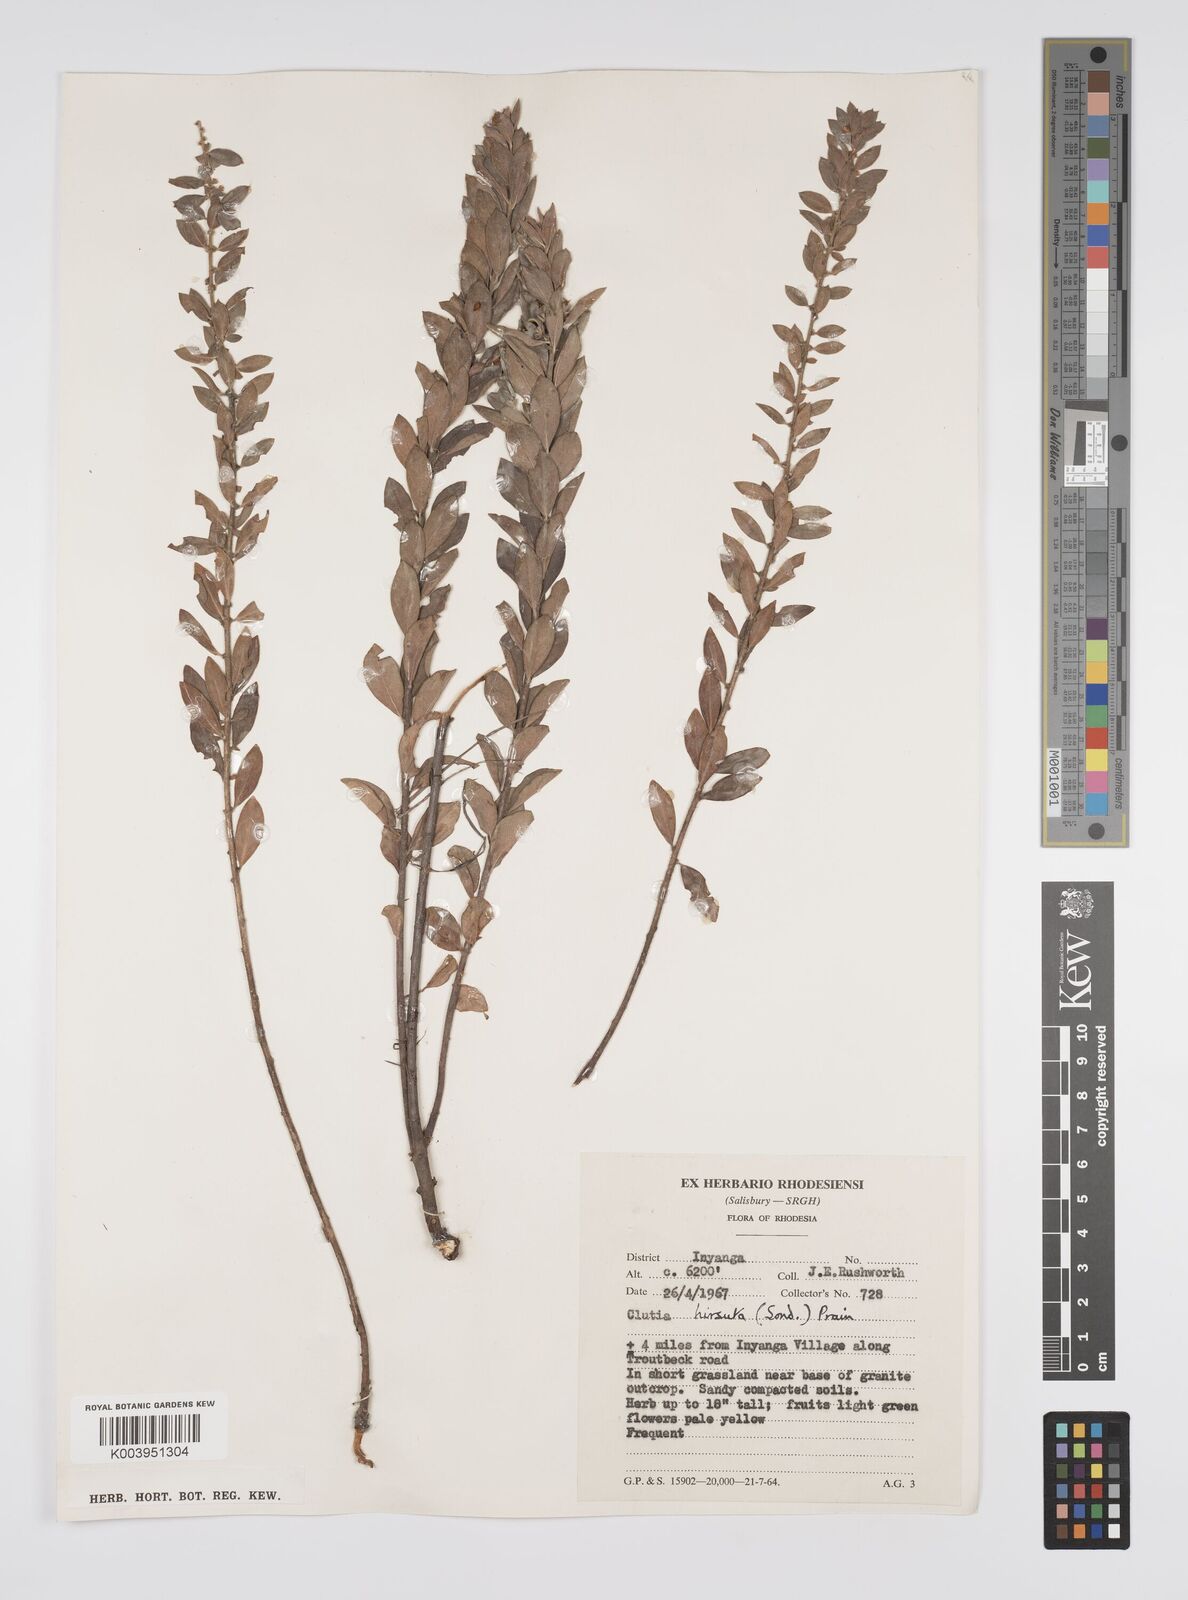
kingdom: Plantae
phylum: Tracheophyta
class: Magnoliopsida
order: Malpighiales
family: Peraceae
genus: Clutia
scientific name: Clutia hirsuta
